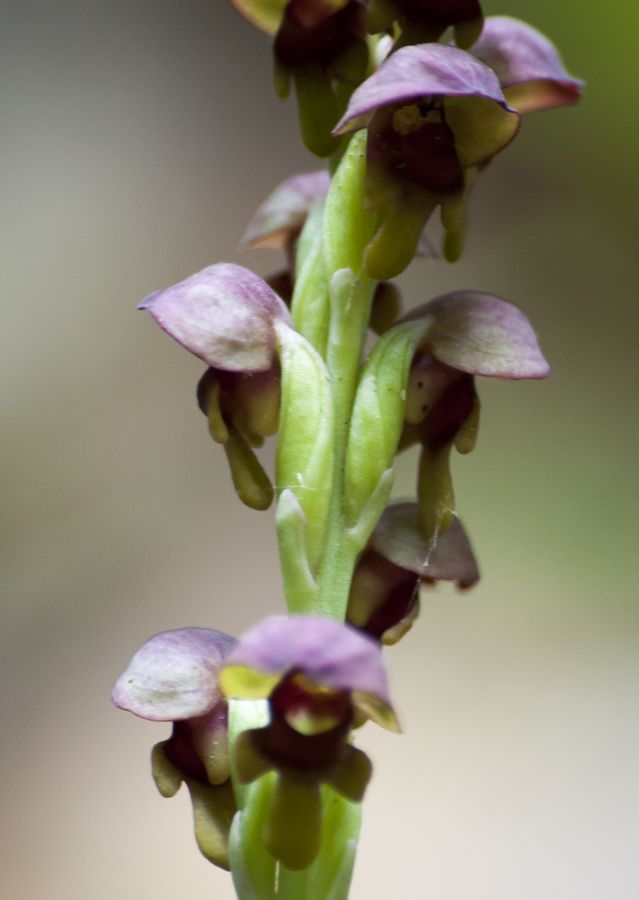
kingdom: Plantae
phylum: Tracheophyta
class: Liliopsida
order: Asparagales
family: Orchidaceae
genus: Steveniella
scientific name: Steveniella satyrioides
